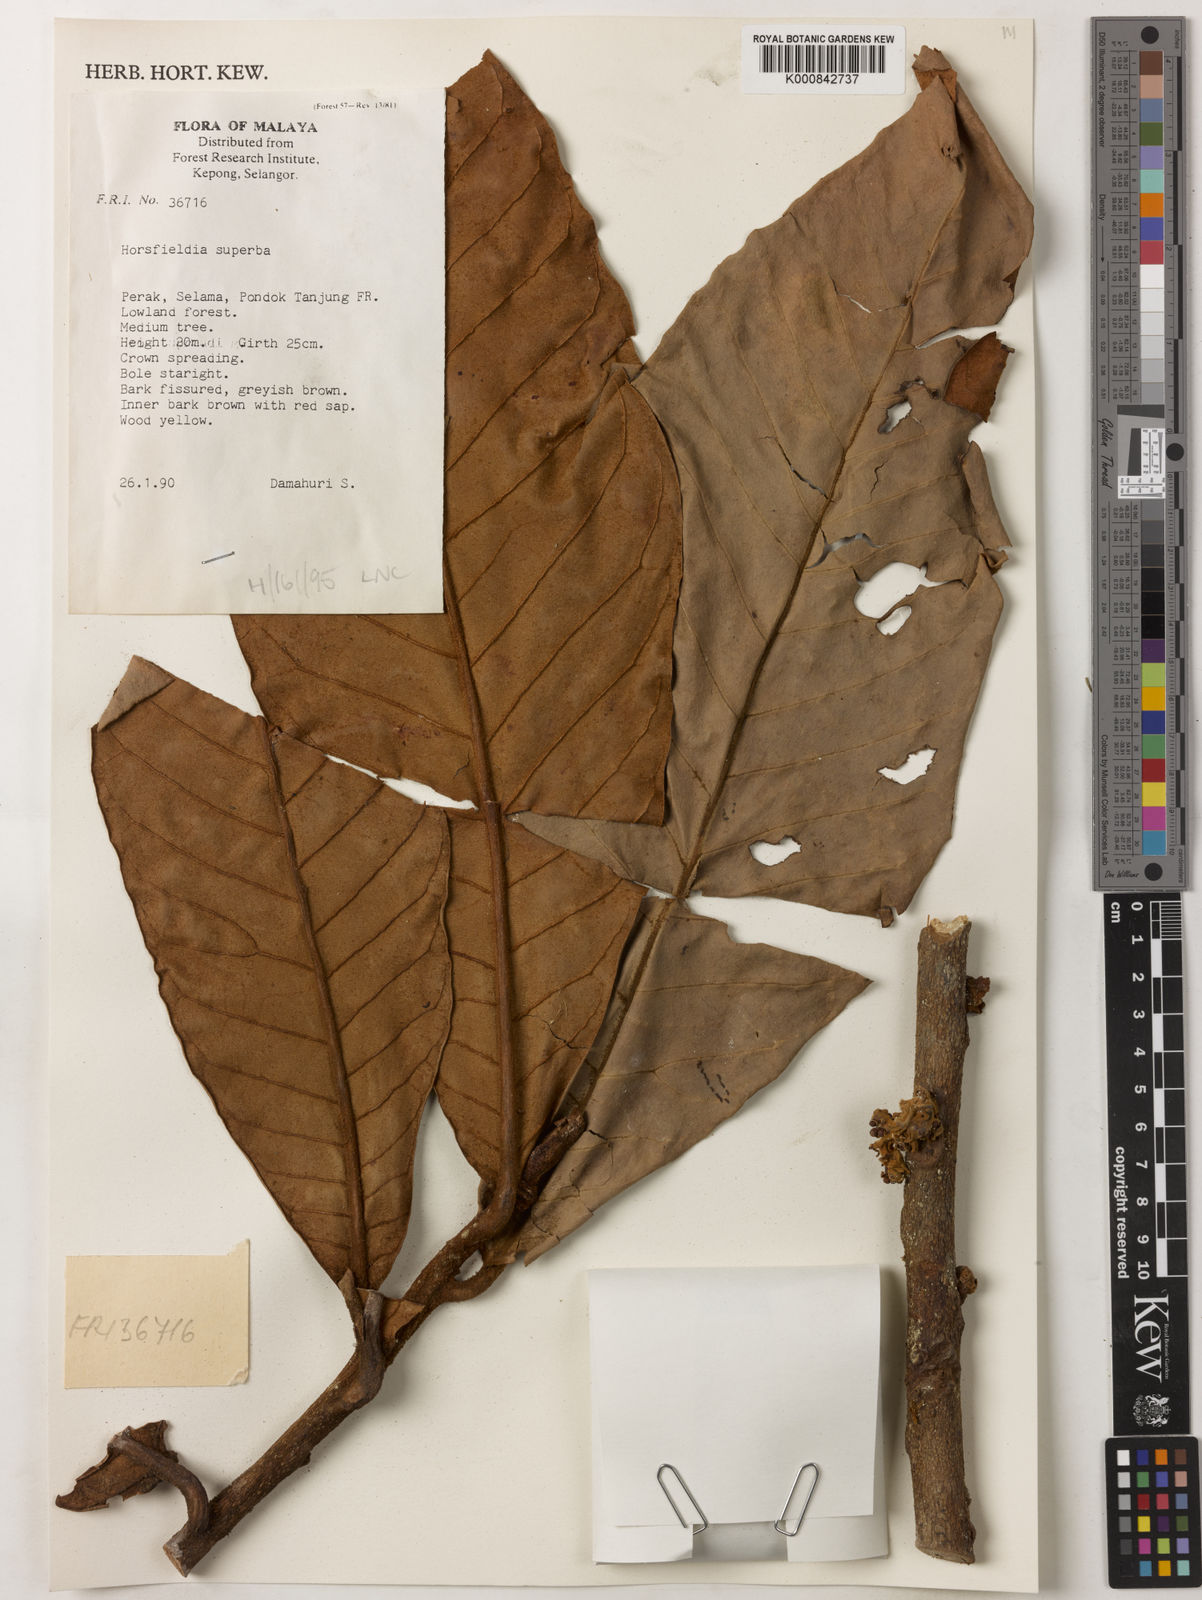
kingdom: Plantae
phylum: Tracheophyta
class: Magnoliopsida
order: Magnoliales
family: Myristicaceae
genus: Horsfieldia
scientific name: Horsfieldia superba
